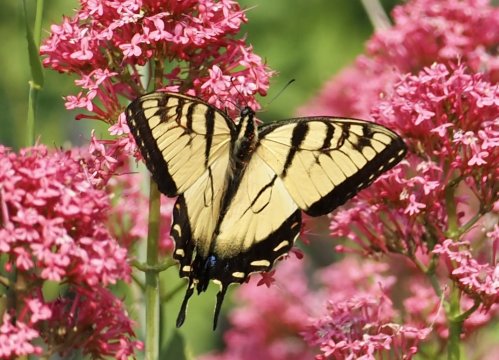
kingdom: Animalia
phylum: Arthropoda
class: Insecta
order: Lepidoptera
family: Papilionidae
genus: Pterourus
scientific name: Pterourus canadensis
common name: Canadian Tiger Swallowtail
